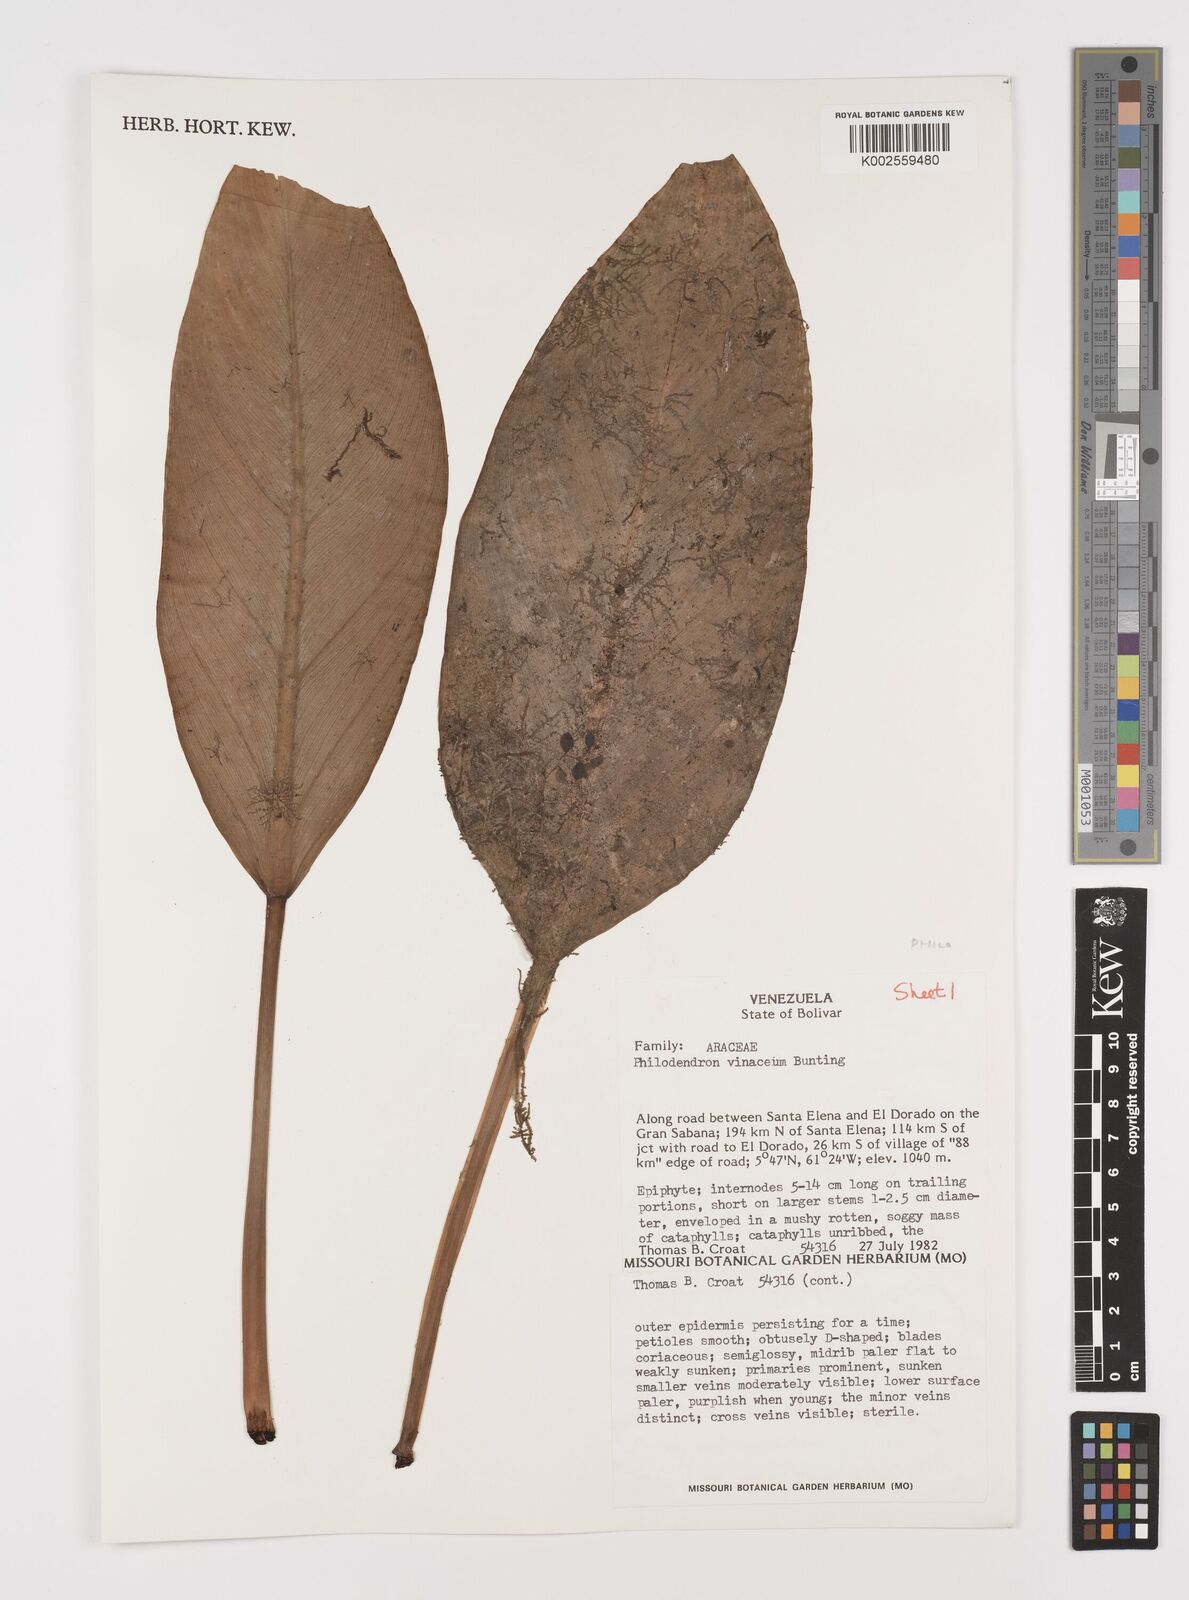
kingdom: Plantae
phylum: Tracheophyta
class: Liliopsida
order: Alismatales
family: Araceae
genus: Philodendron
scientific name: Philodendron vinaceum
